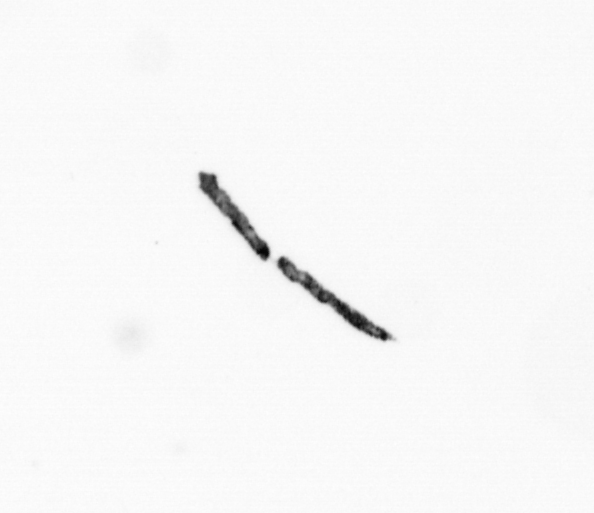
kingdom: Bacteria
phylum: Cyanobacteria
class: Cyanobacteriia
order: Cyanobacteriales
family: Microcoleaceae
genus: Trichodesmium
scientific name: Trichodesmium
